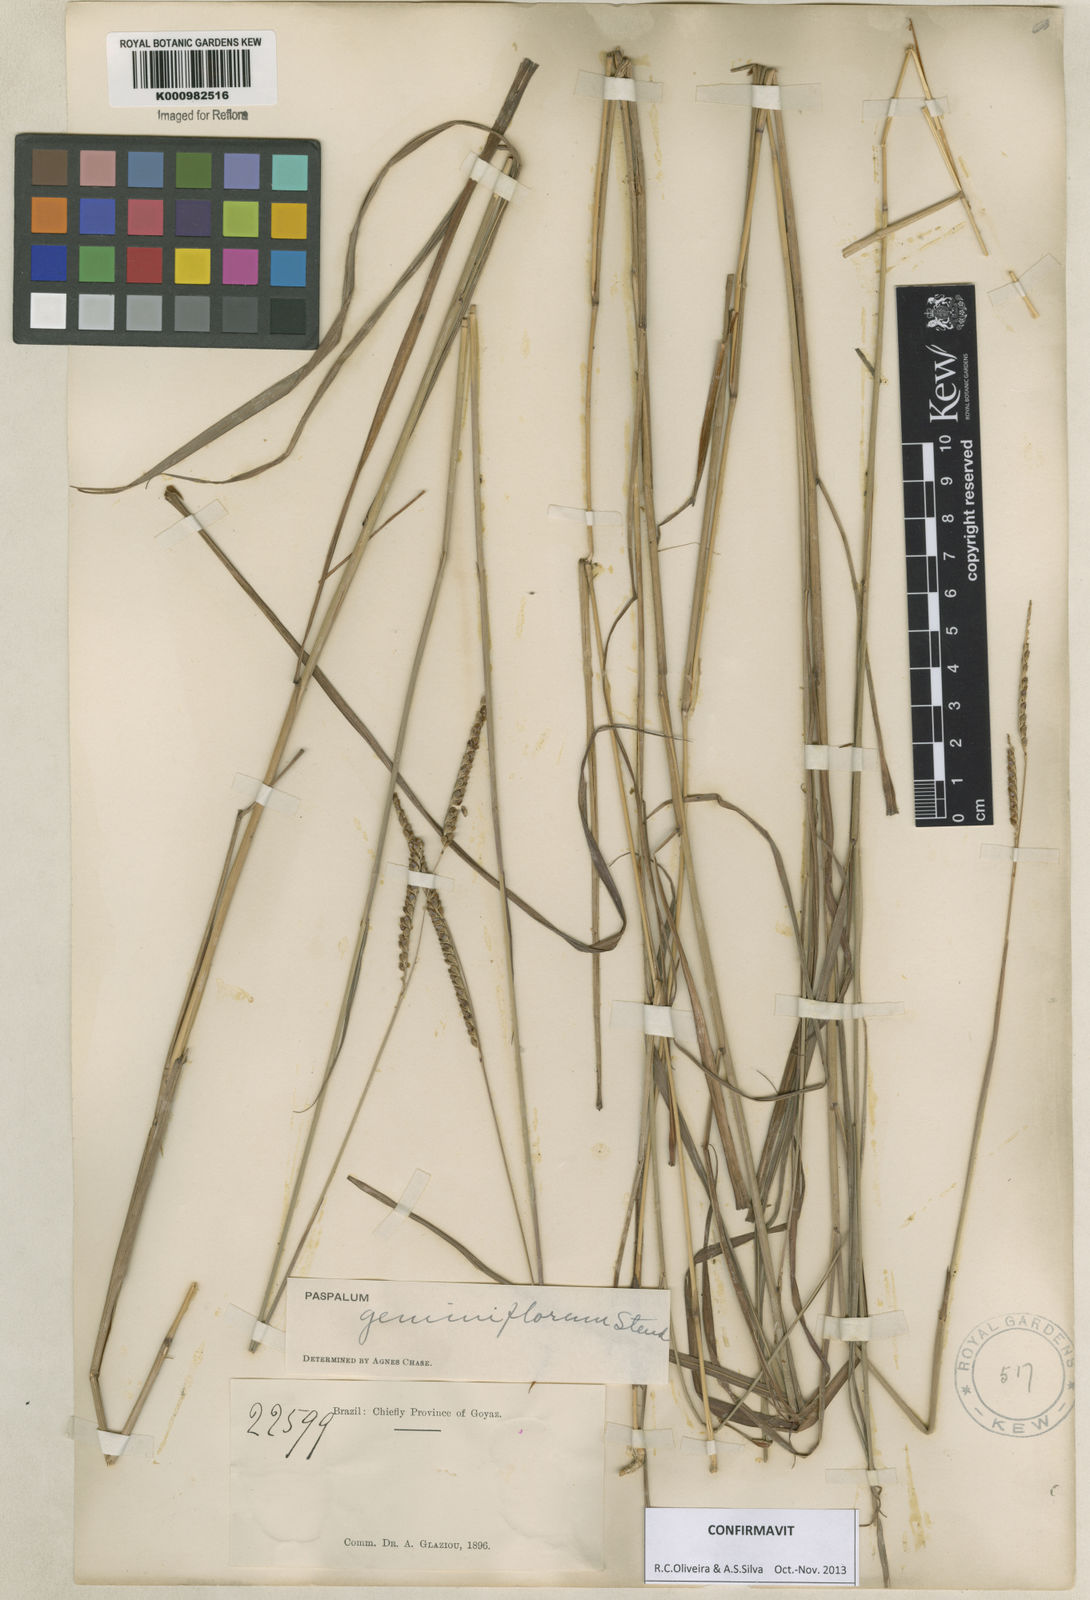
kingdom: Plantae
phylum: Tracheophyta
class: Liliopsida
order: Poales
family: Poaceae
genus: Paspalum
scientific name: Paspalum geminiflorum
